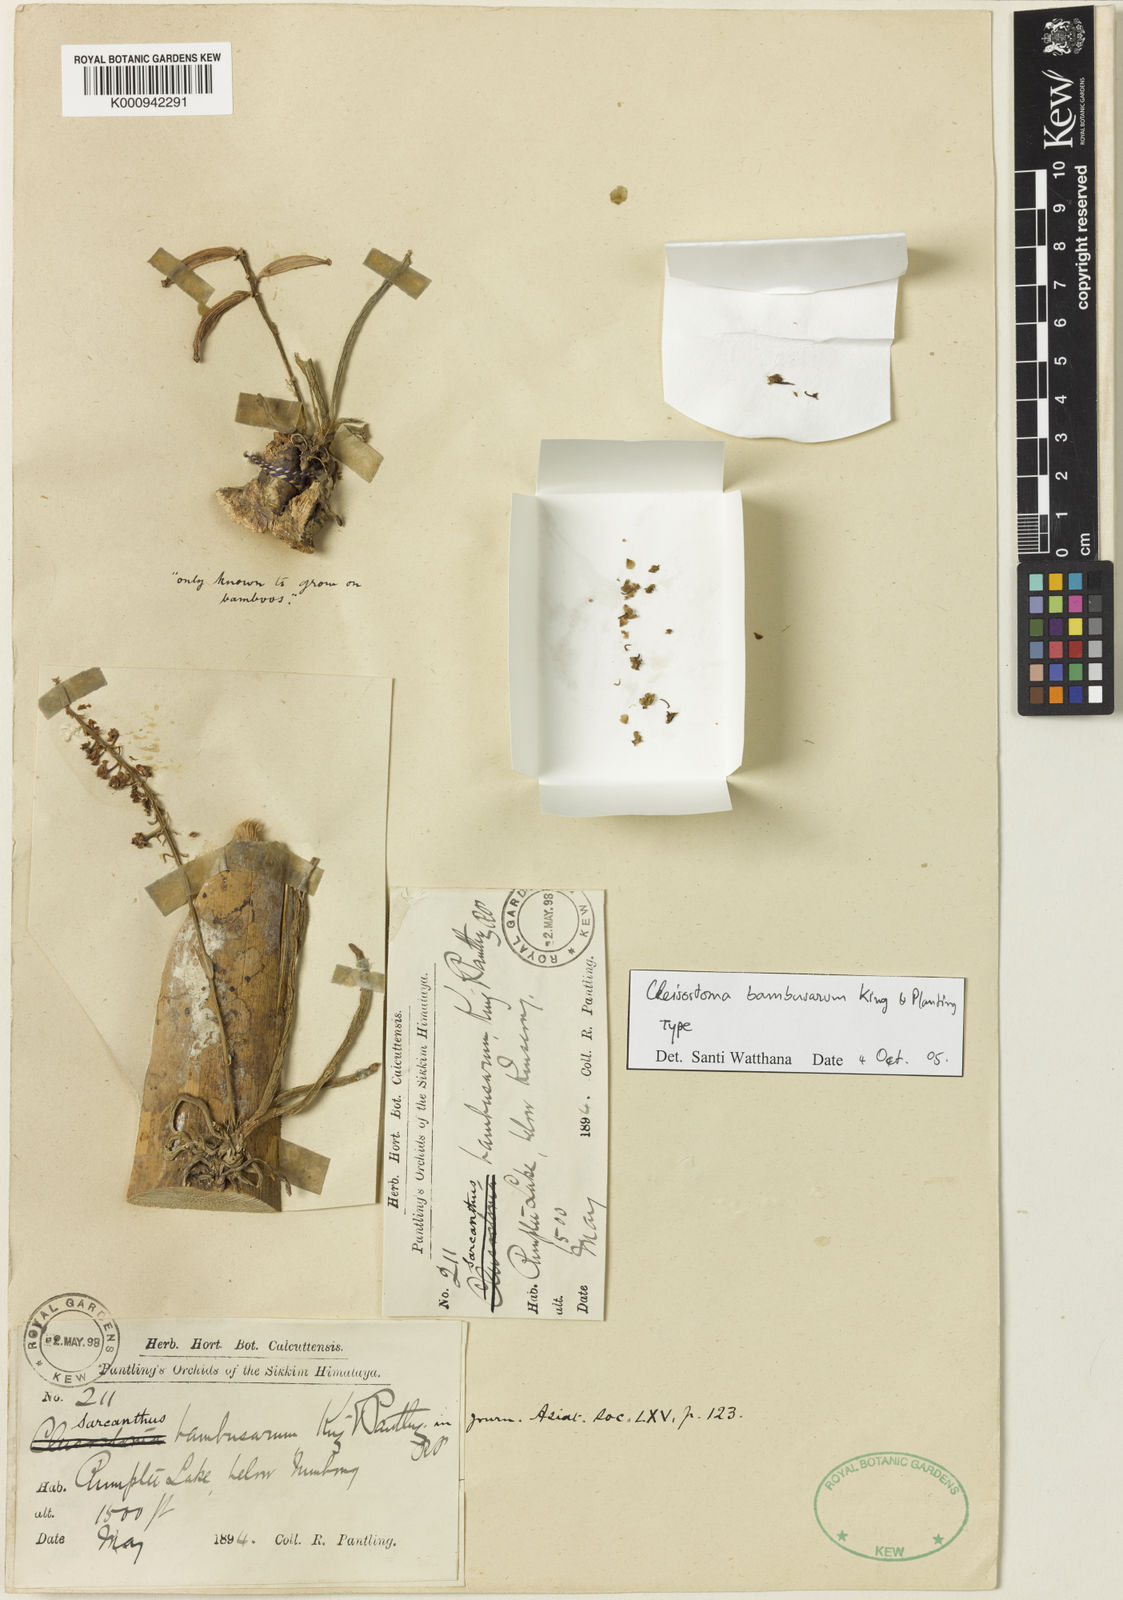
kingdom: Plantae
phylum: Tracheophyta
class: Liliopsida
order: Asparagales
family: Orchidaceae
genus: Robiquetia
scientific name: Robiquetia bambusara
